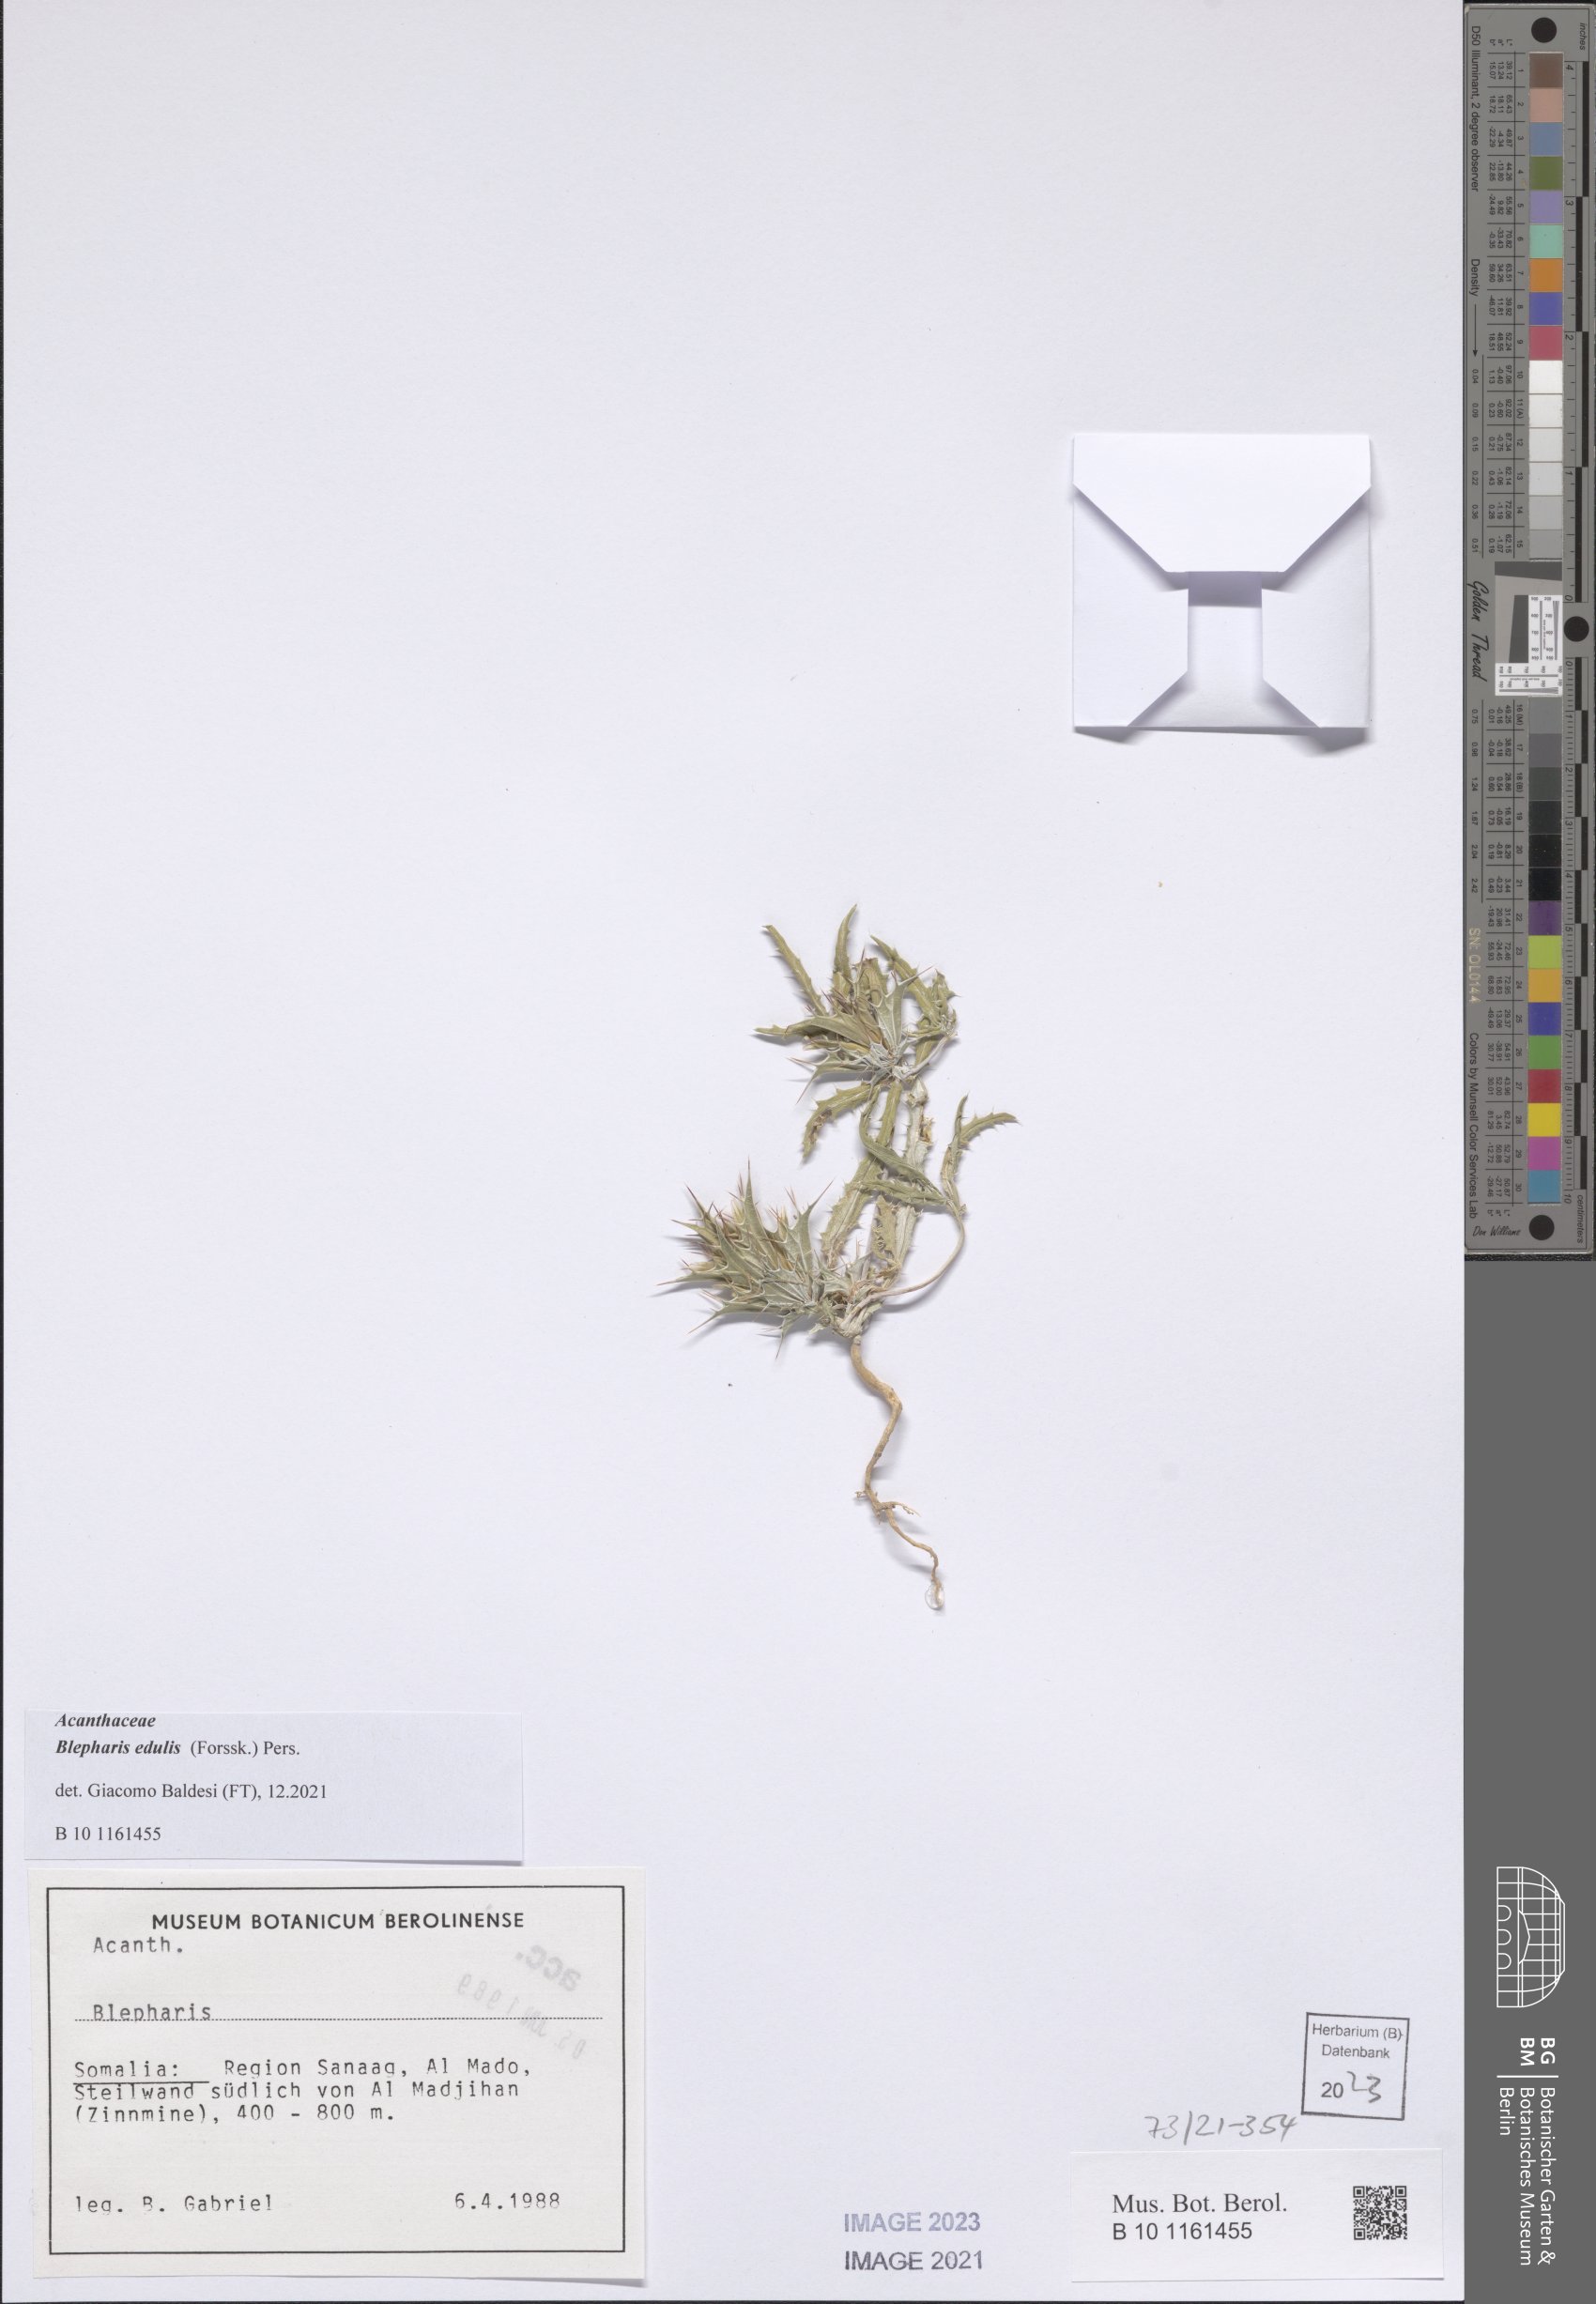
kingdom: Plantae
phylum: Tracheophyta
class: Magnoliopsida
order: Lamiales
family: Acanthaceae
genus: Blepharis
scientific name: Blepharis edulis
